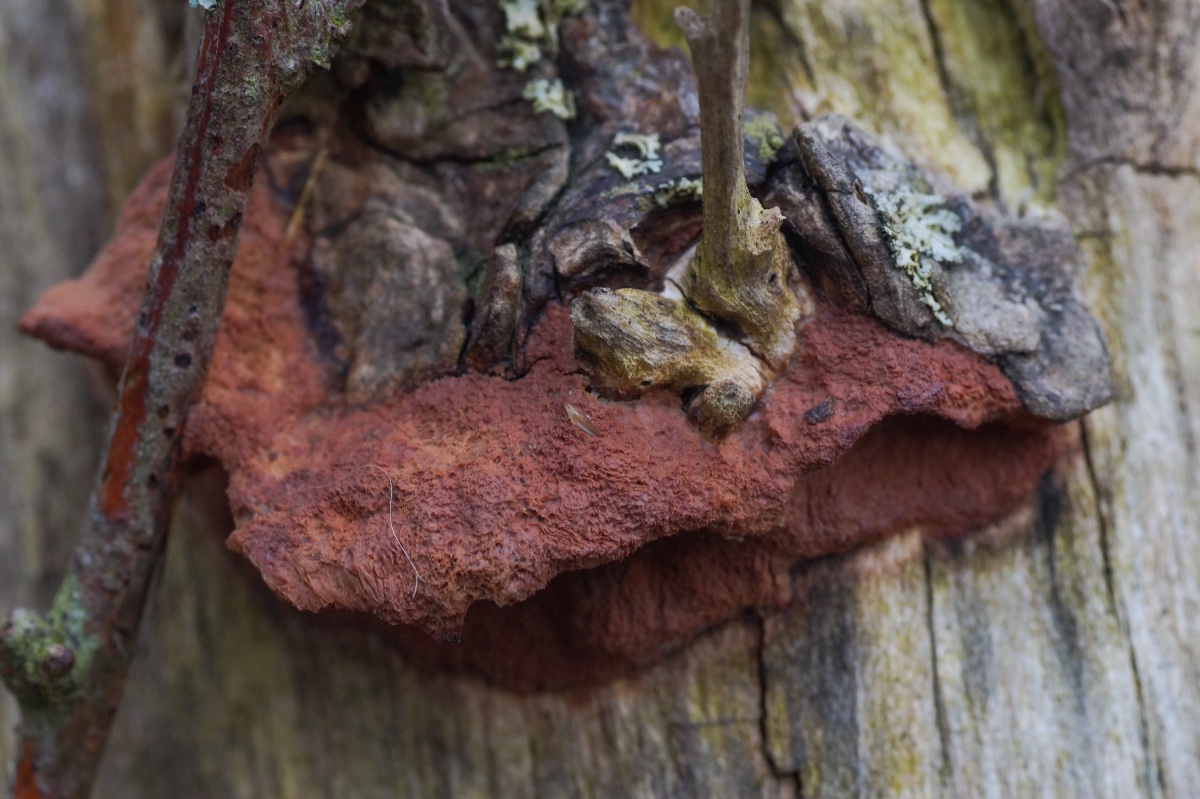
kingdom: Fungi
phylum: Basidiomycota
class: Agaricomycetes
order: Polyporales
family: Phanerochaetaceae
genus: Hapalopilus
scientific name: Hapalopilus rutilans
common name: rødlig okkerporesvamp
